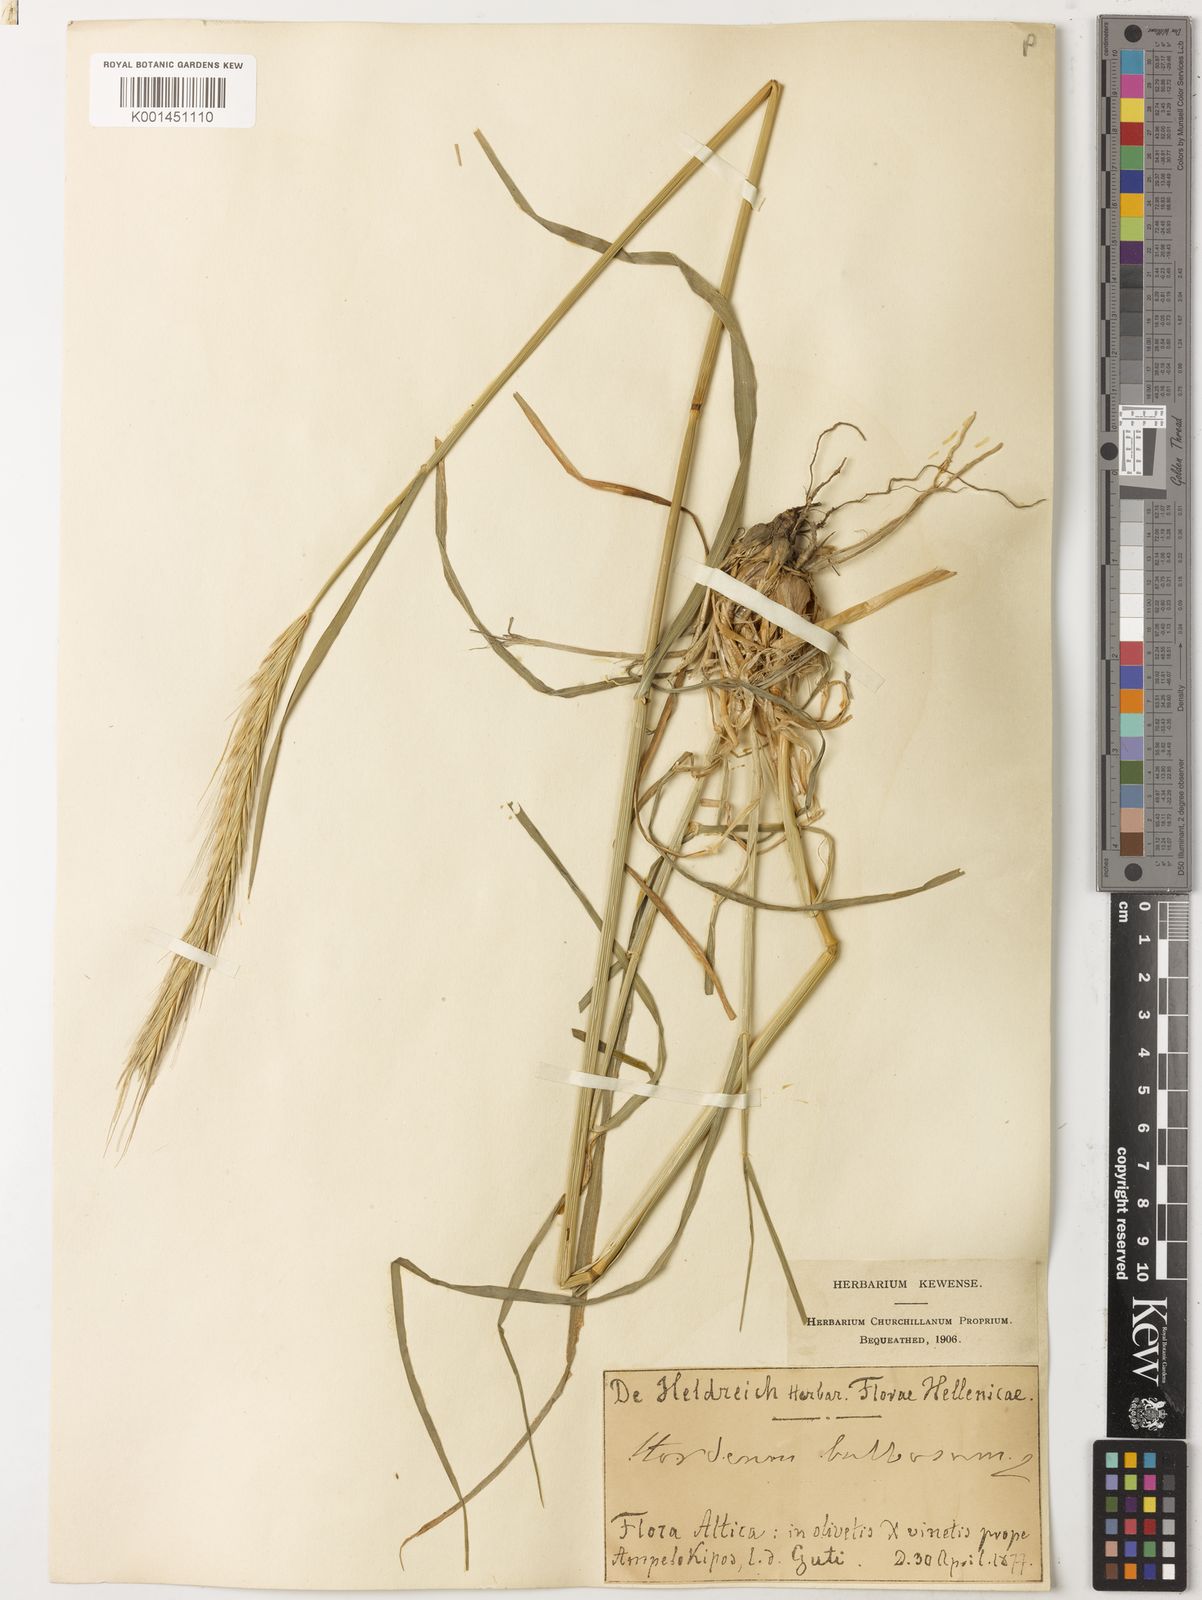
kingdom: Plantae
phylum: Tracheophyta
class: Liliopsida
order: Poales
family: Poaceae
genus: Hordeum
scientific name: Hordeum bulbosum
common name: Bulbous barley
